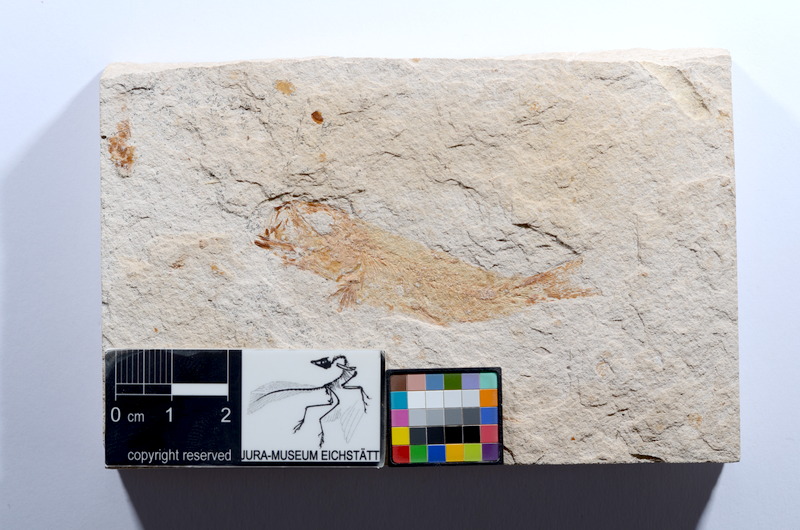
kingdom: Animalia
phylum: Chordata
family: Ascalaboidae
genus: Tharsis
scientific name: Tharsis dubius
